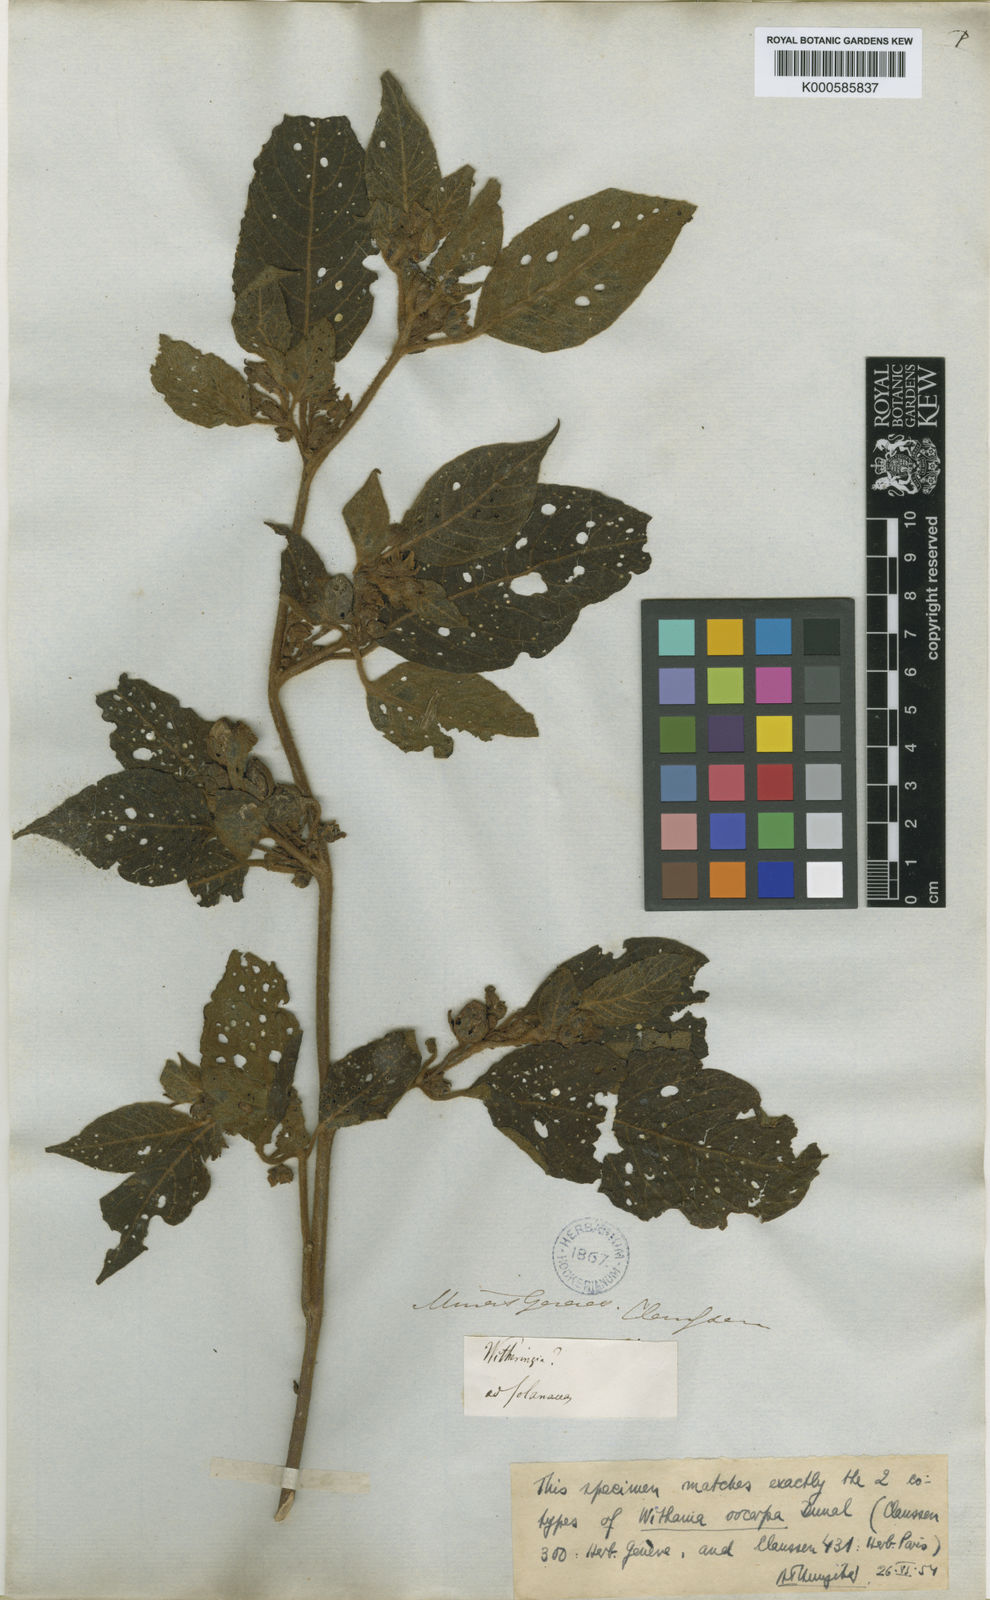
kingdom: Plantae
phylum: Tracheophyta
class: Magnoliopsida
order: Solanales
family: Solanaceae
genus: Athenaea
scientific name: Athenaea picta
